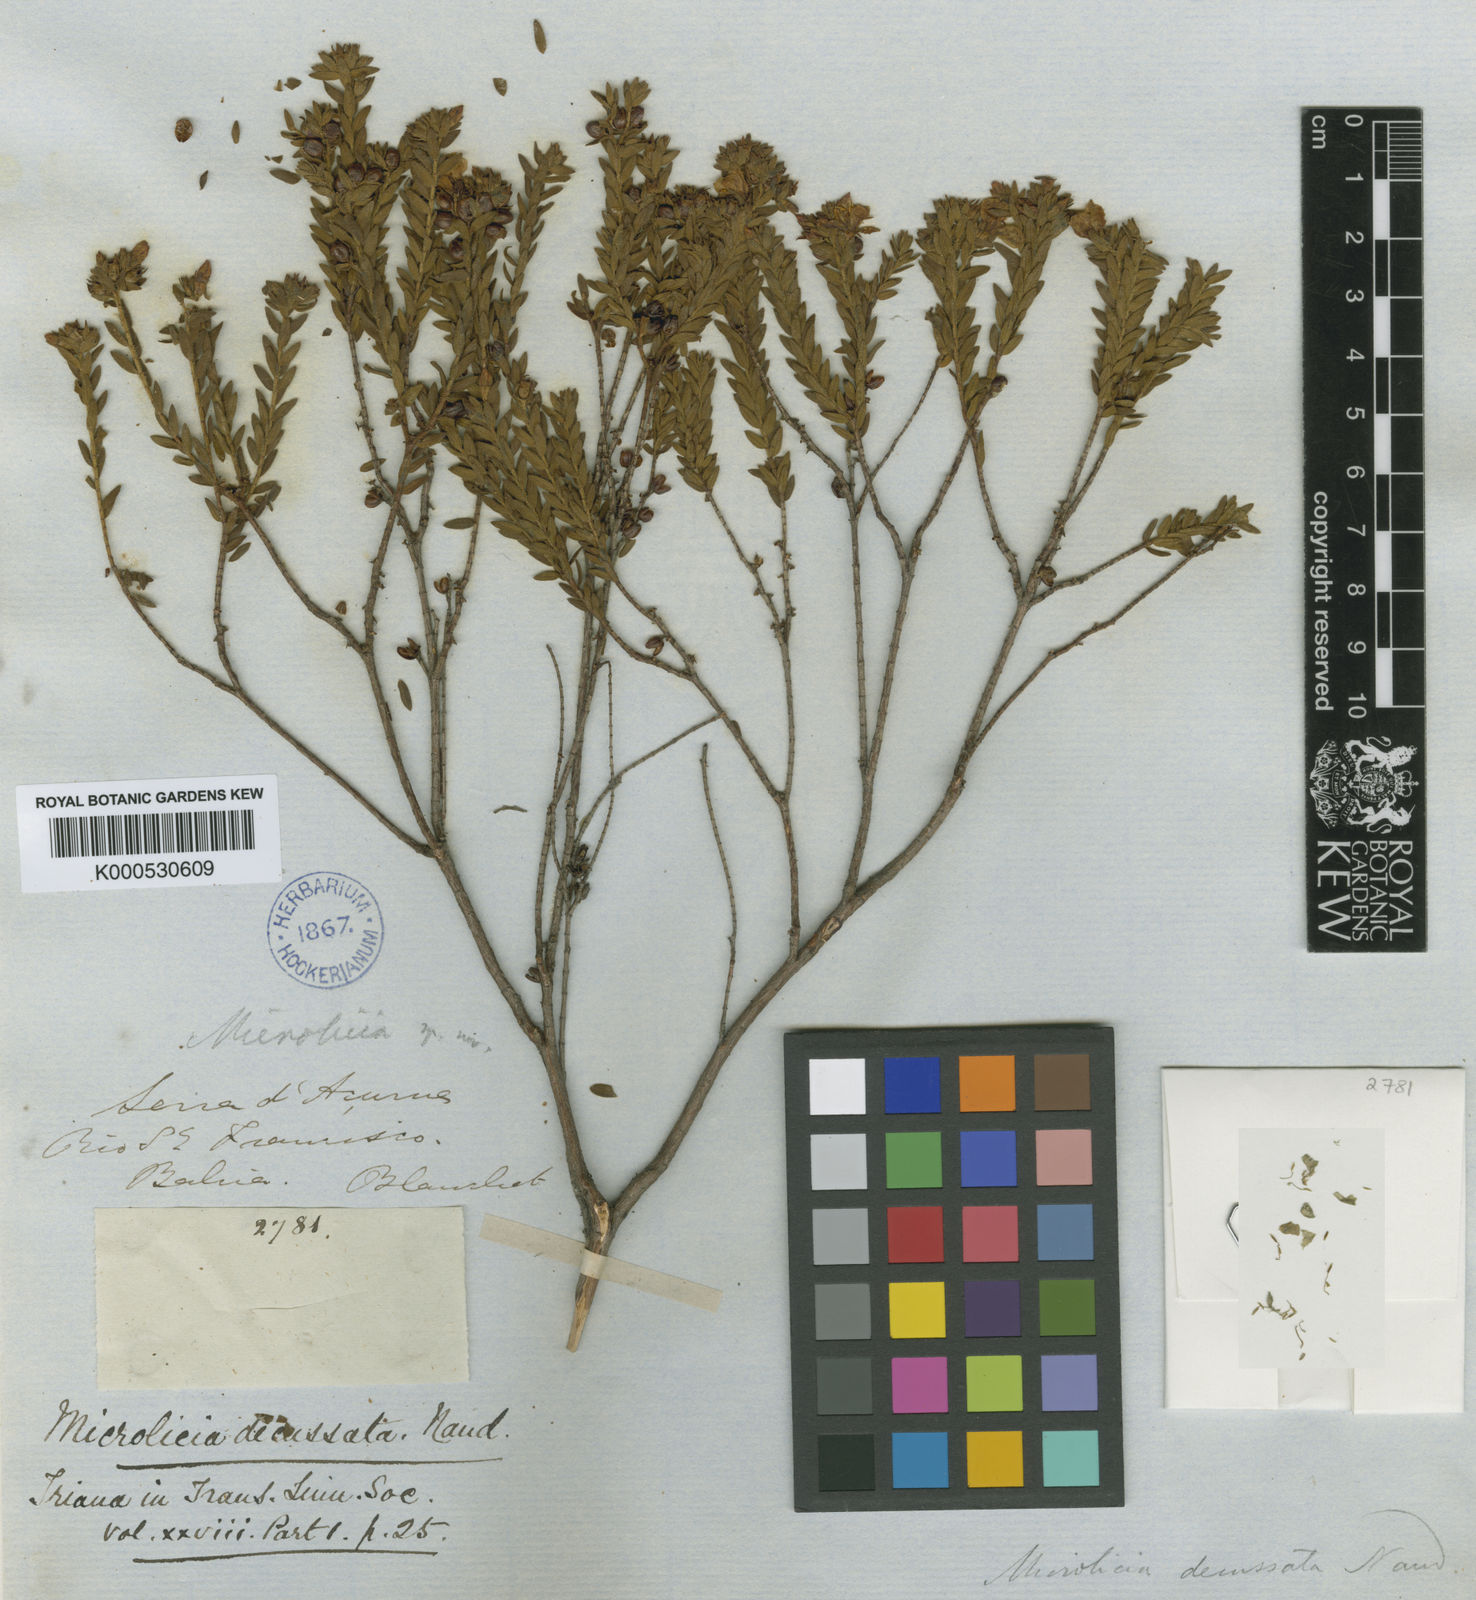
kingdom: Plantae
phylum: Tracheophyta
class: Magnoliopsida
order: Myrtales
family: Melastomataceae
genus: Microlicia
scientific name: Microlicia fasciculata
